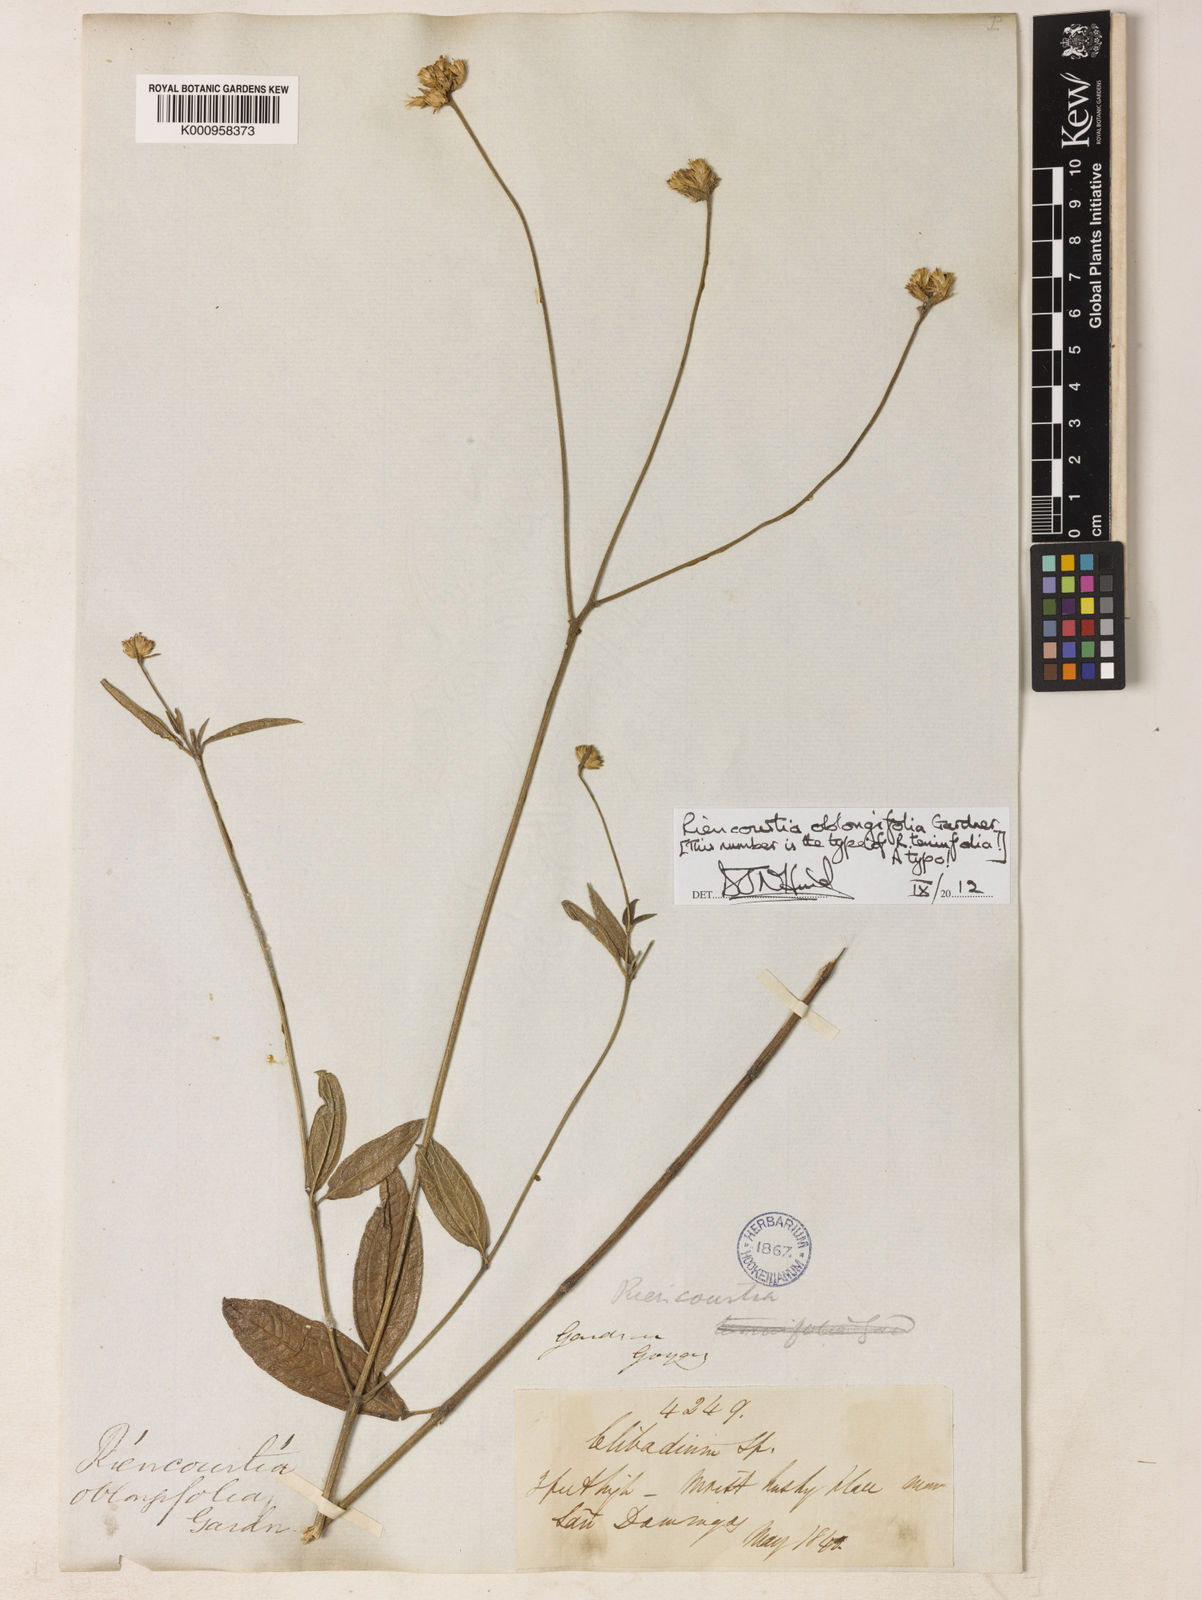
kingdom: Plantae
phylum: Tracheophyta
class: Magnoliopsida
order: Asterales
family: Asteraceae
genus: Riencourtia
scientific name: Riencourtia oblongifolia
